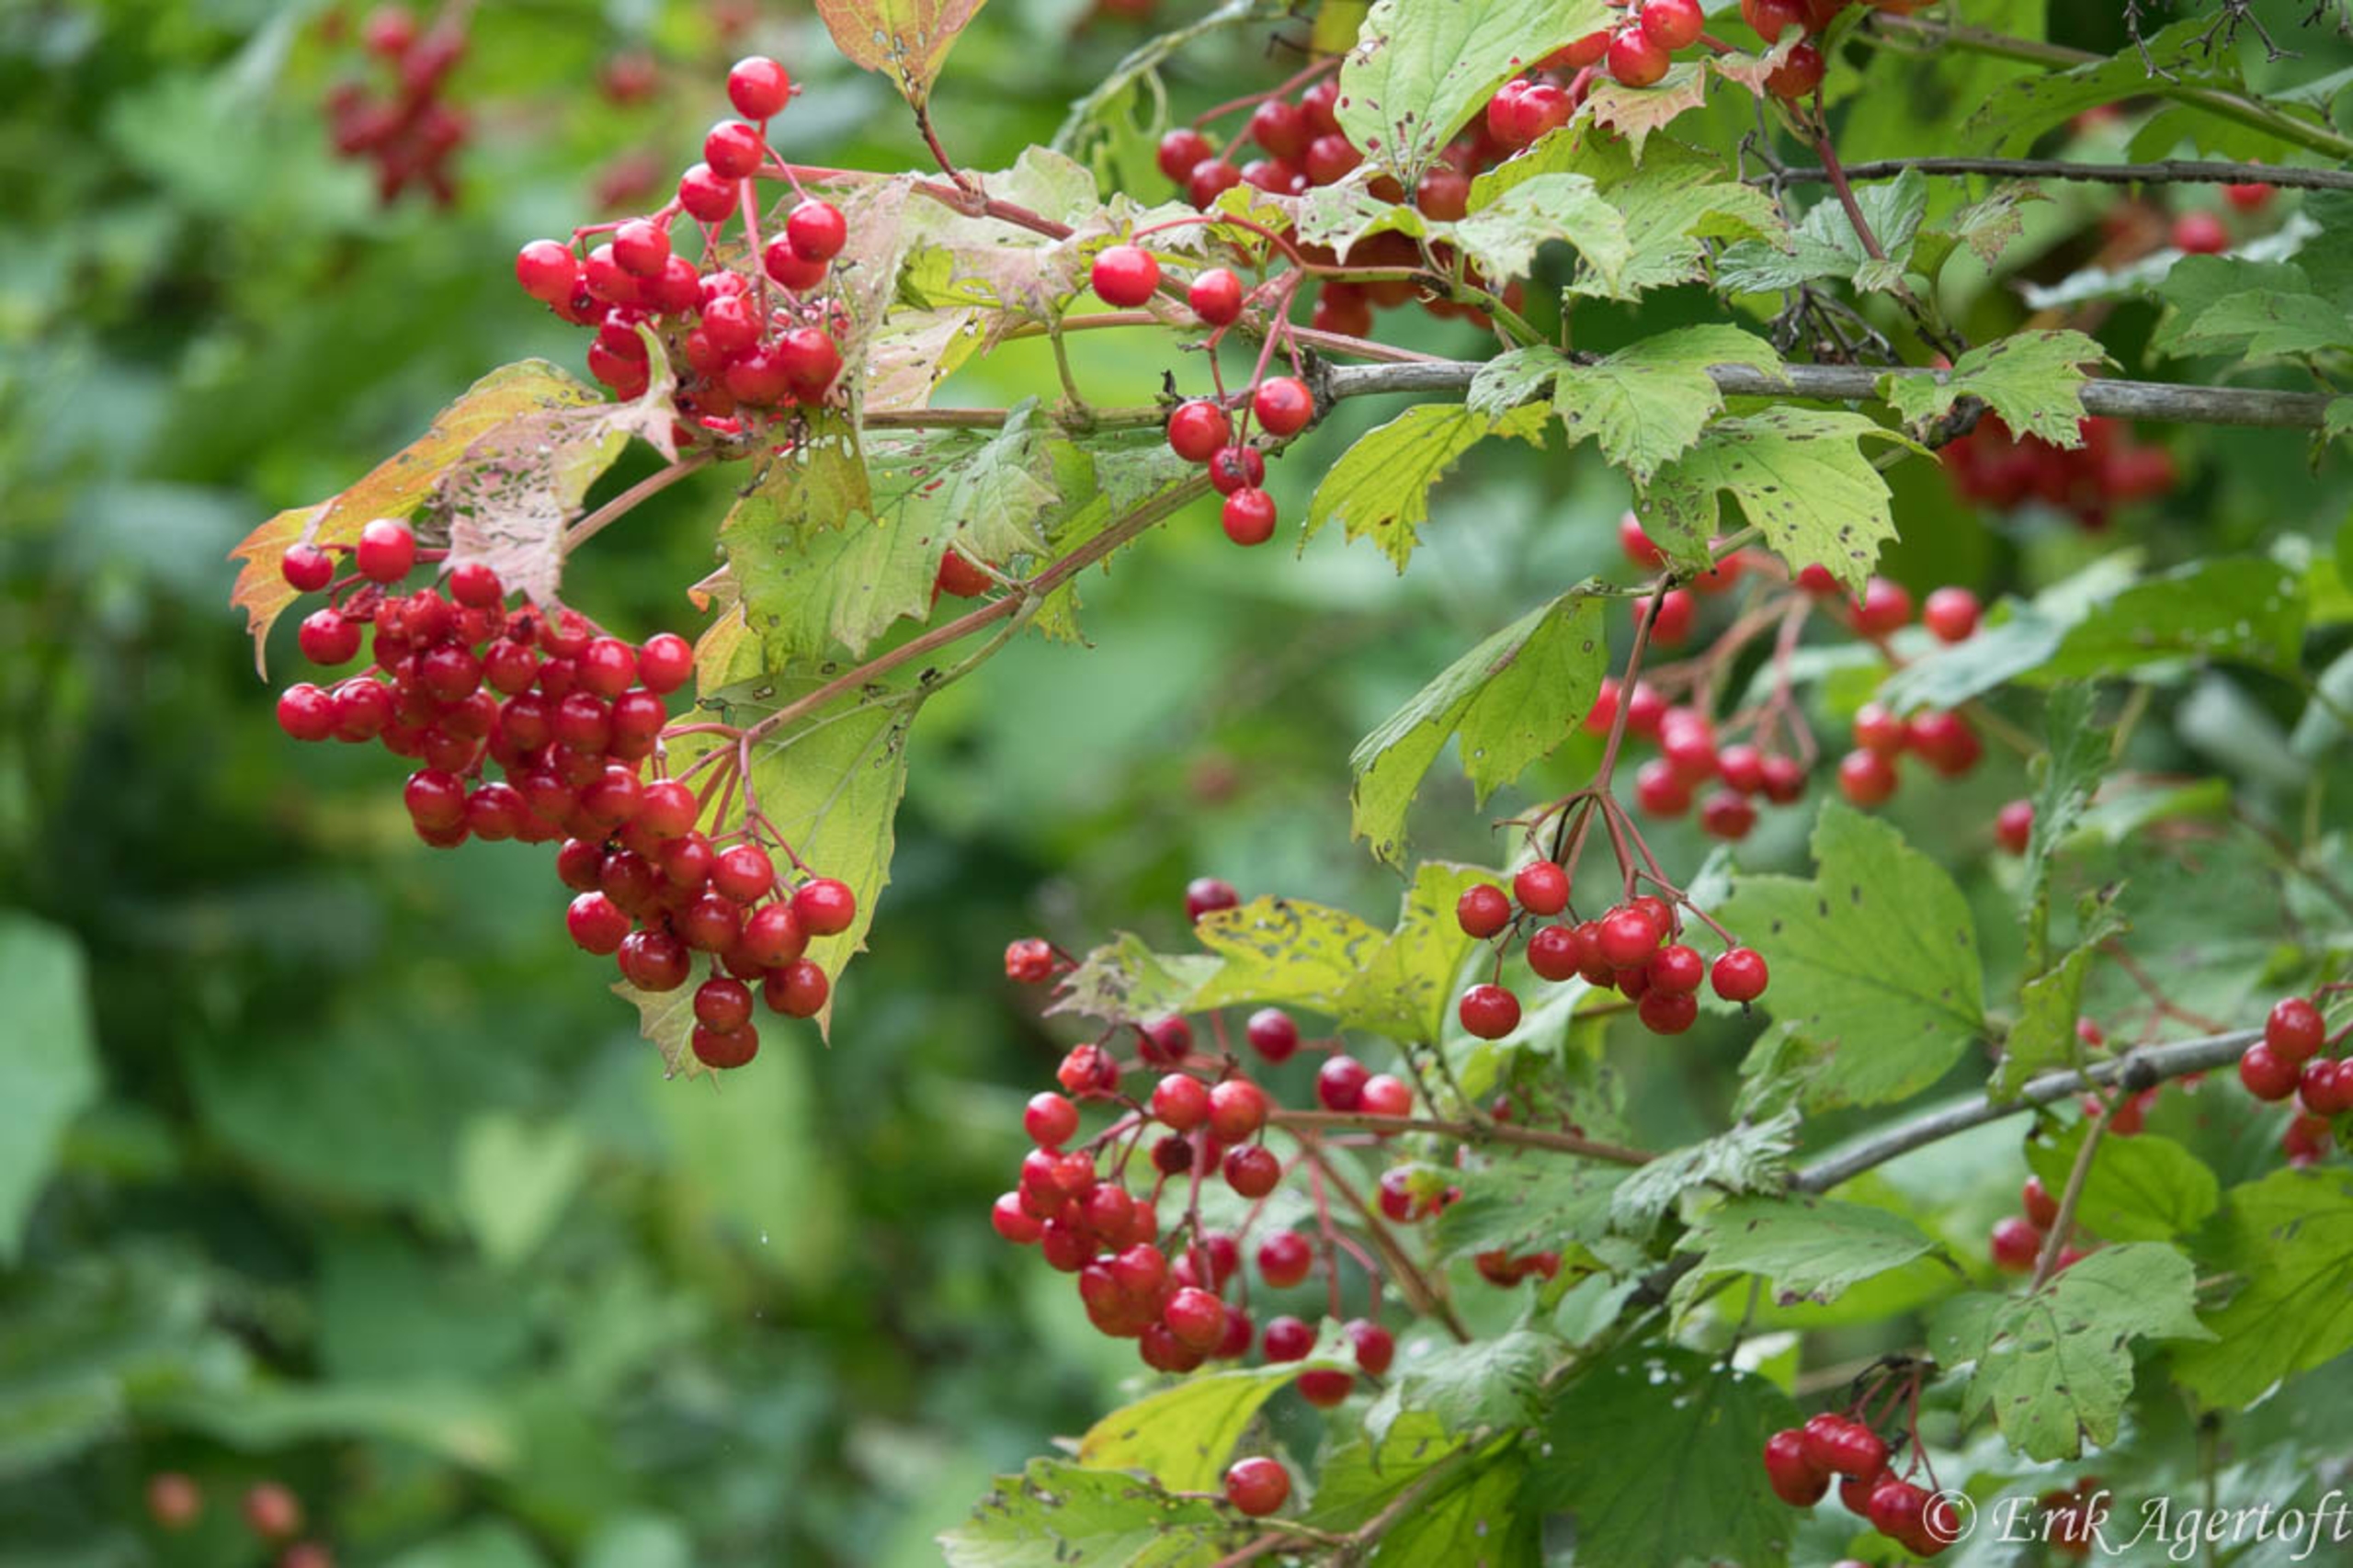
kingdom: Plantae
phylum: Tracheophyta
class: Magnoliopsida
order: Dipsacales
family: Viburnaceae
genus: Viburnum
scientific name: Viburnum opulus
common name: Kvalkved
